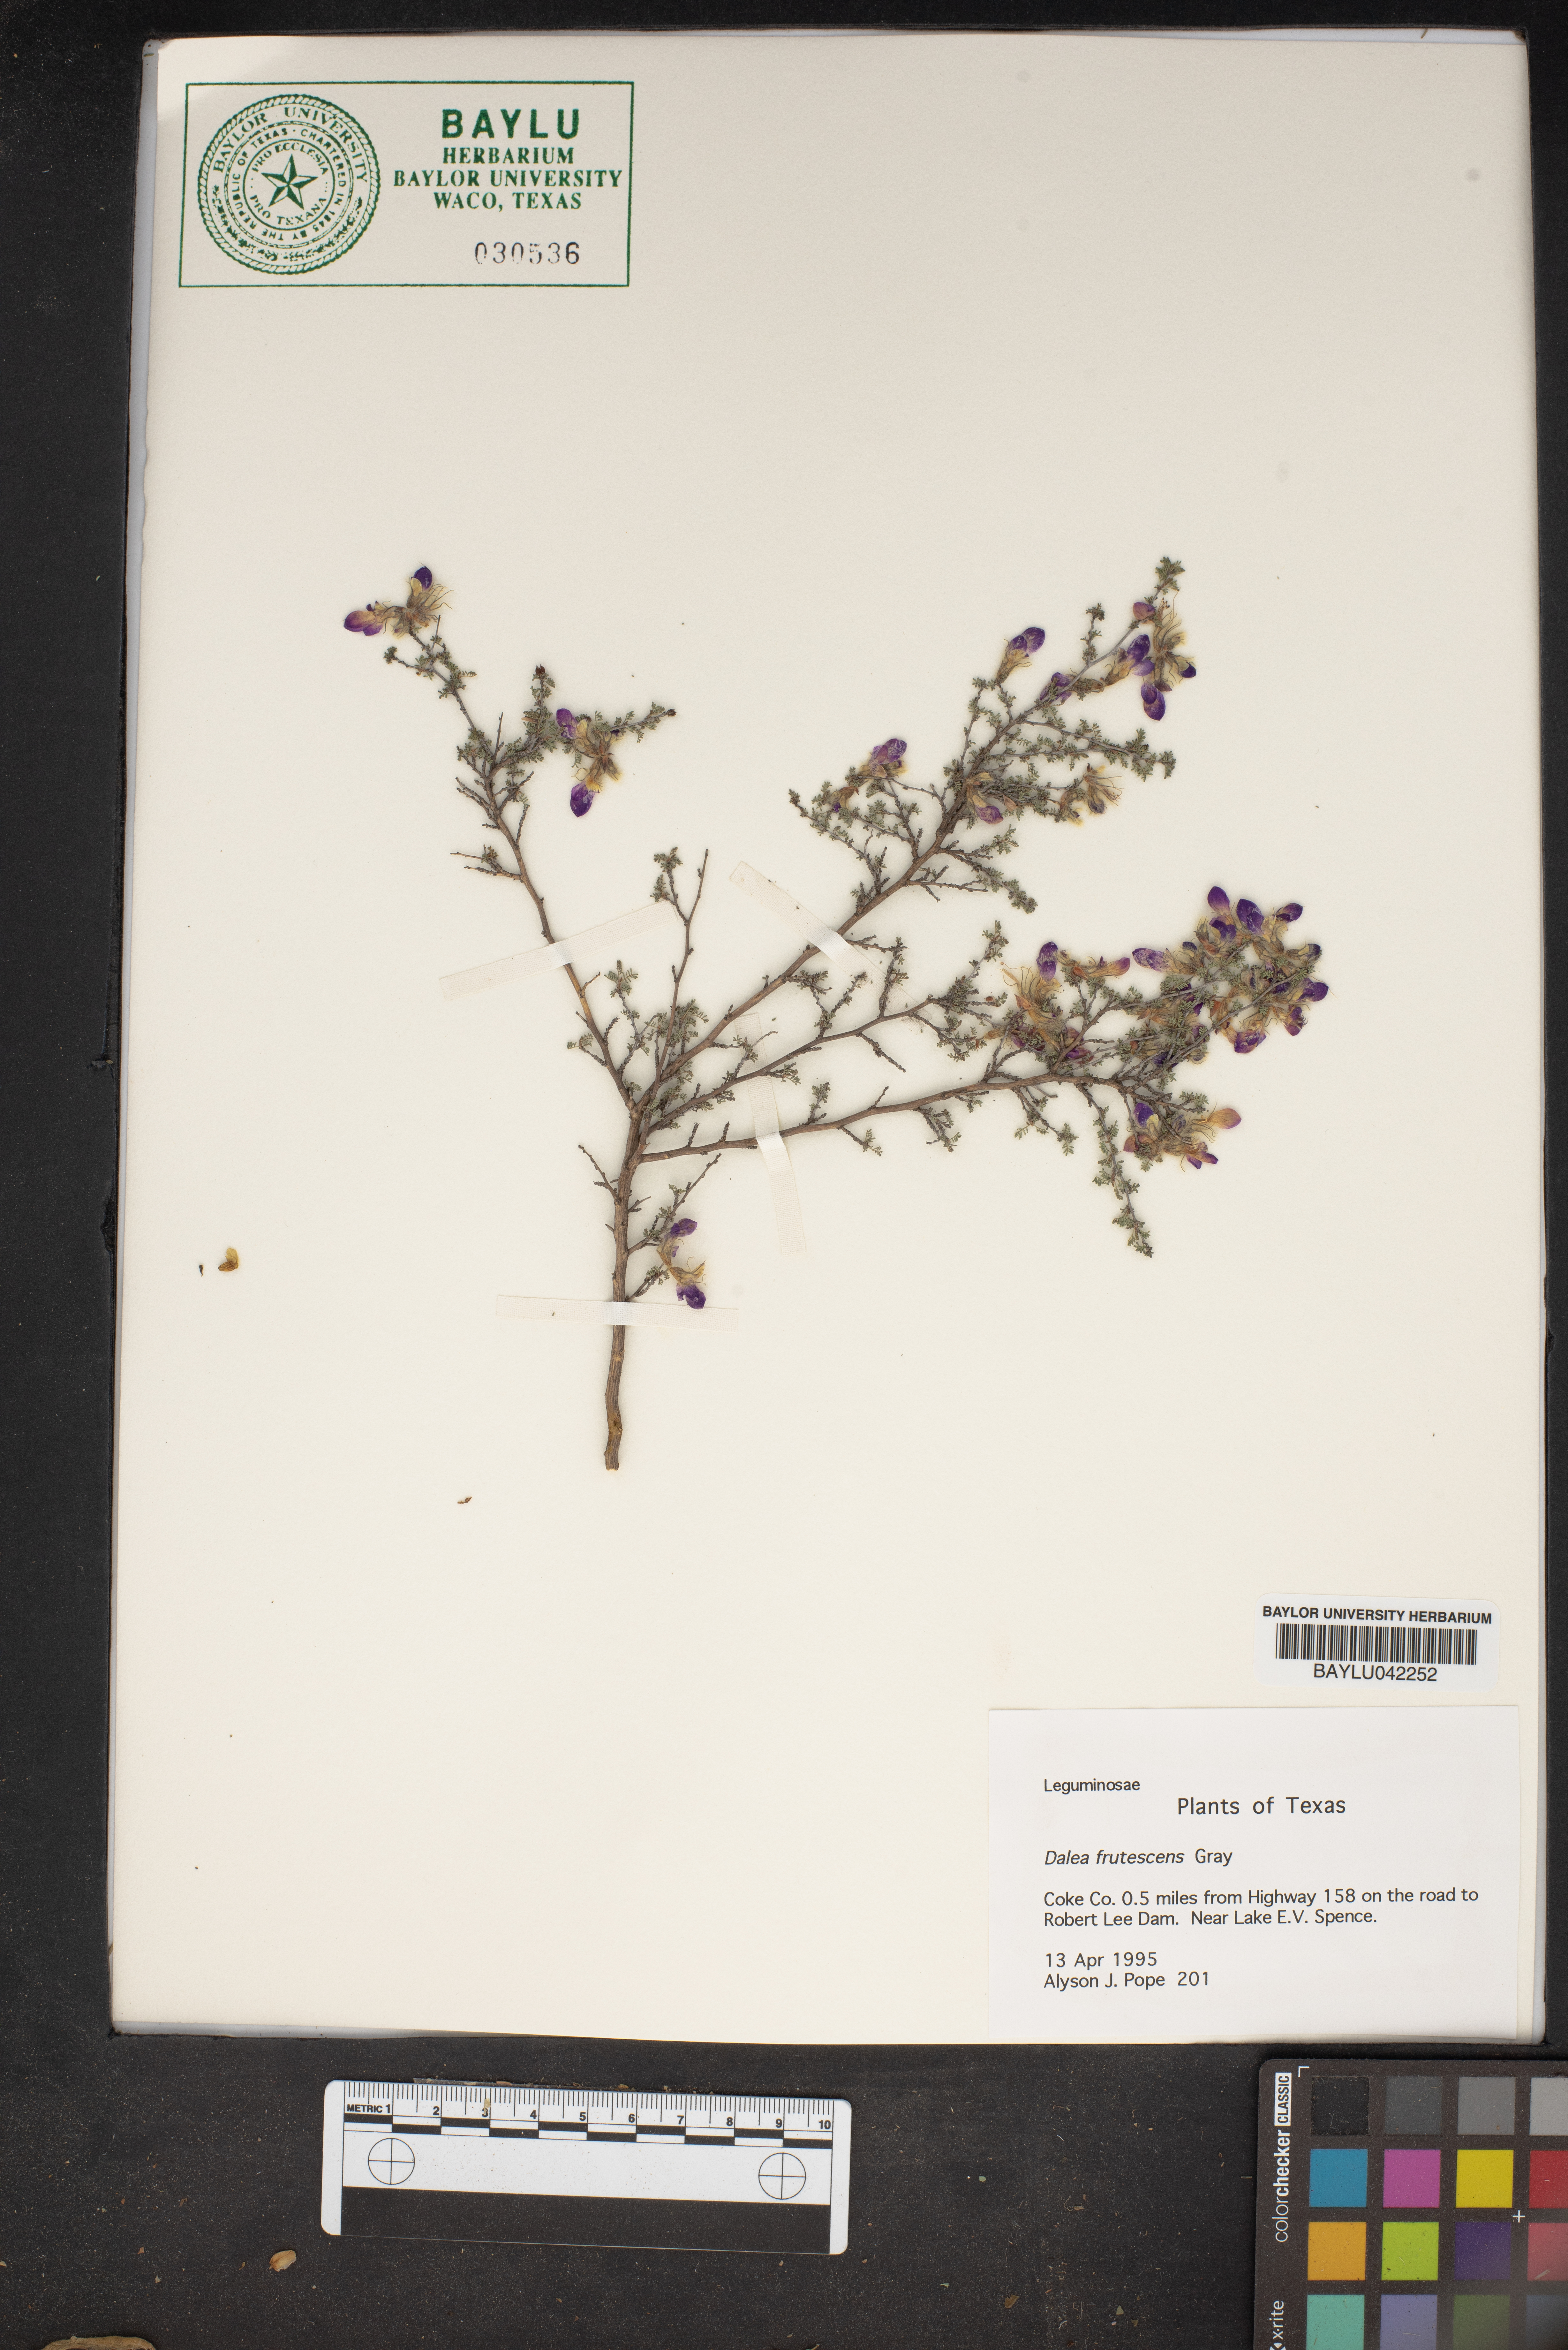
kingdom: Plantae
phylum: Tracheophyta
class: Magnoliopsida
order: Fabales
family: Fabaceae
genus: Dalea
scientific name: Dalea frutescens
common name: Black dalea
